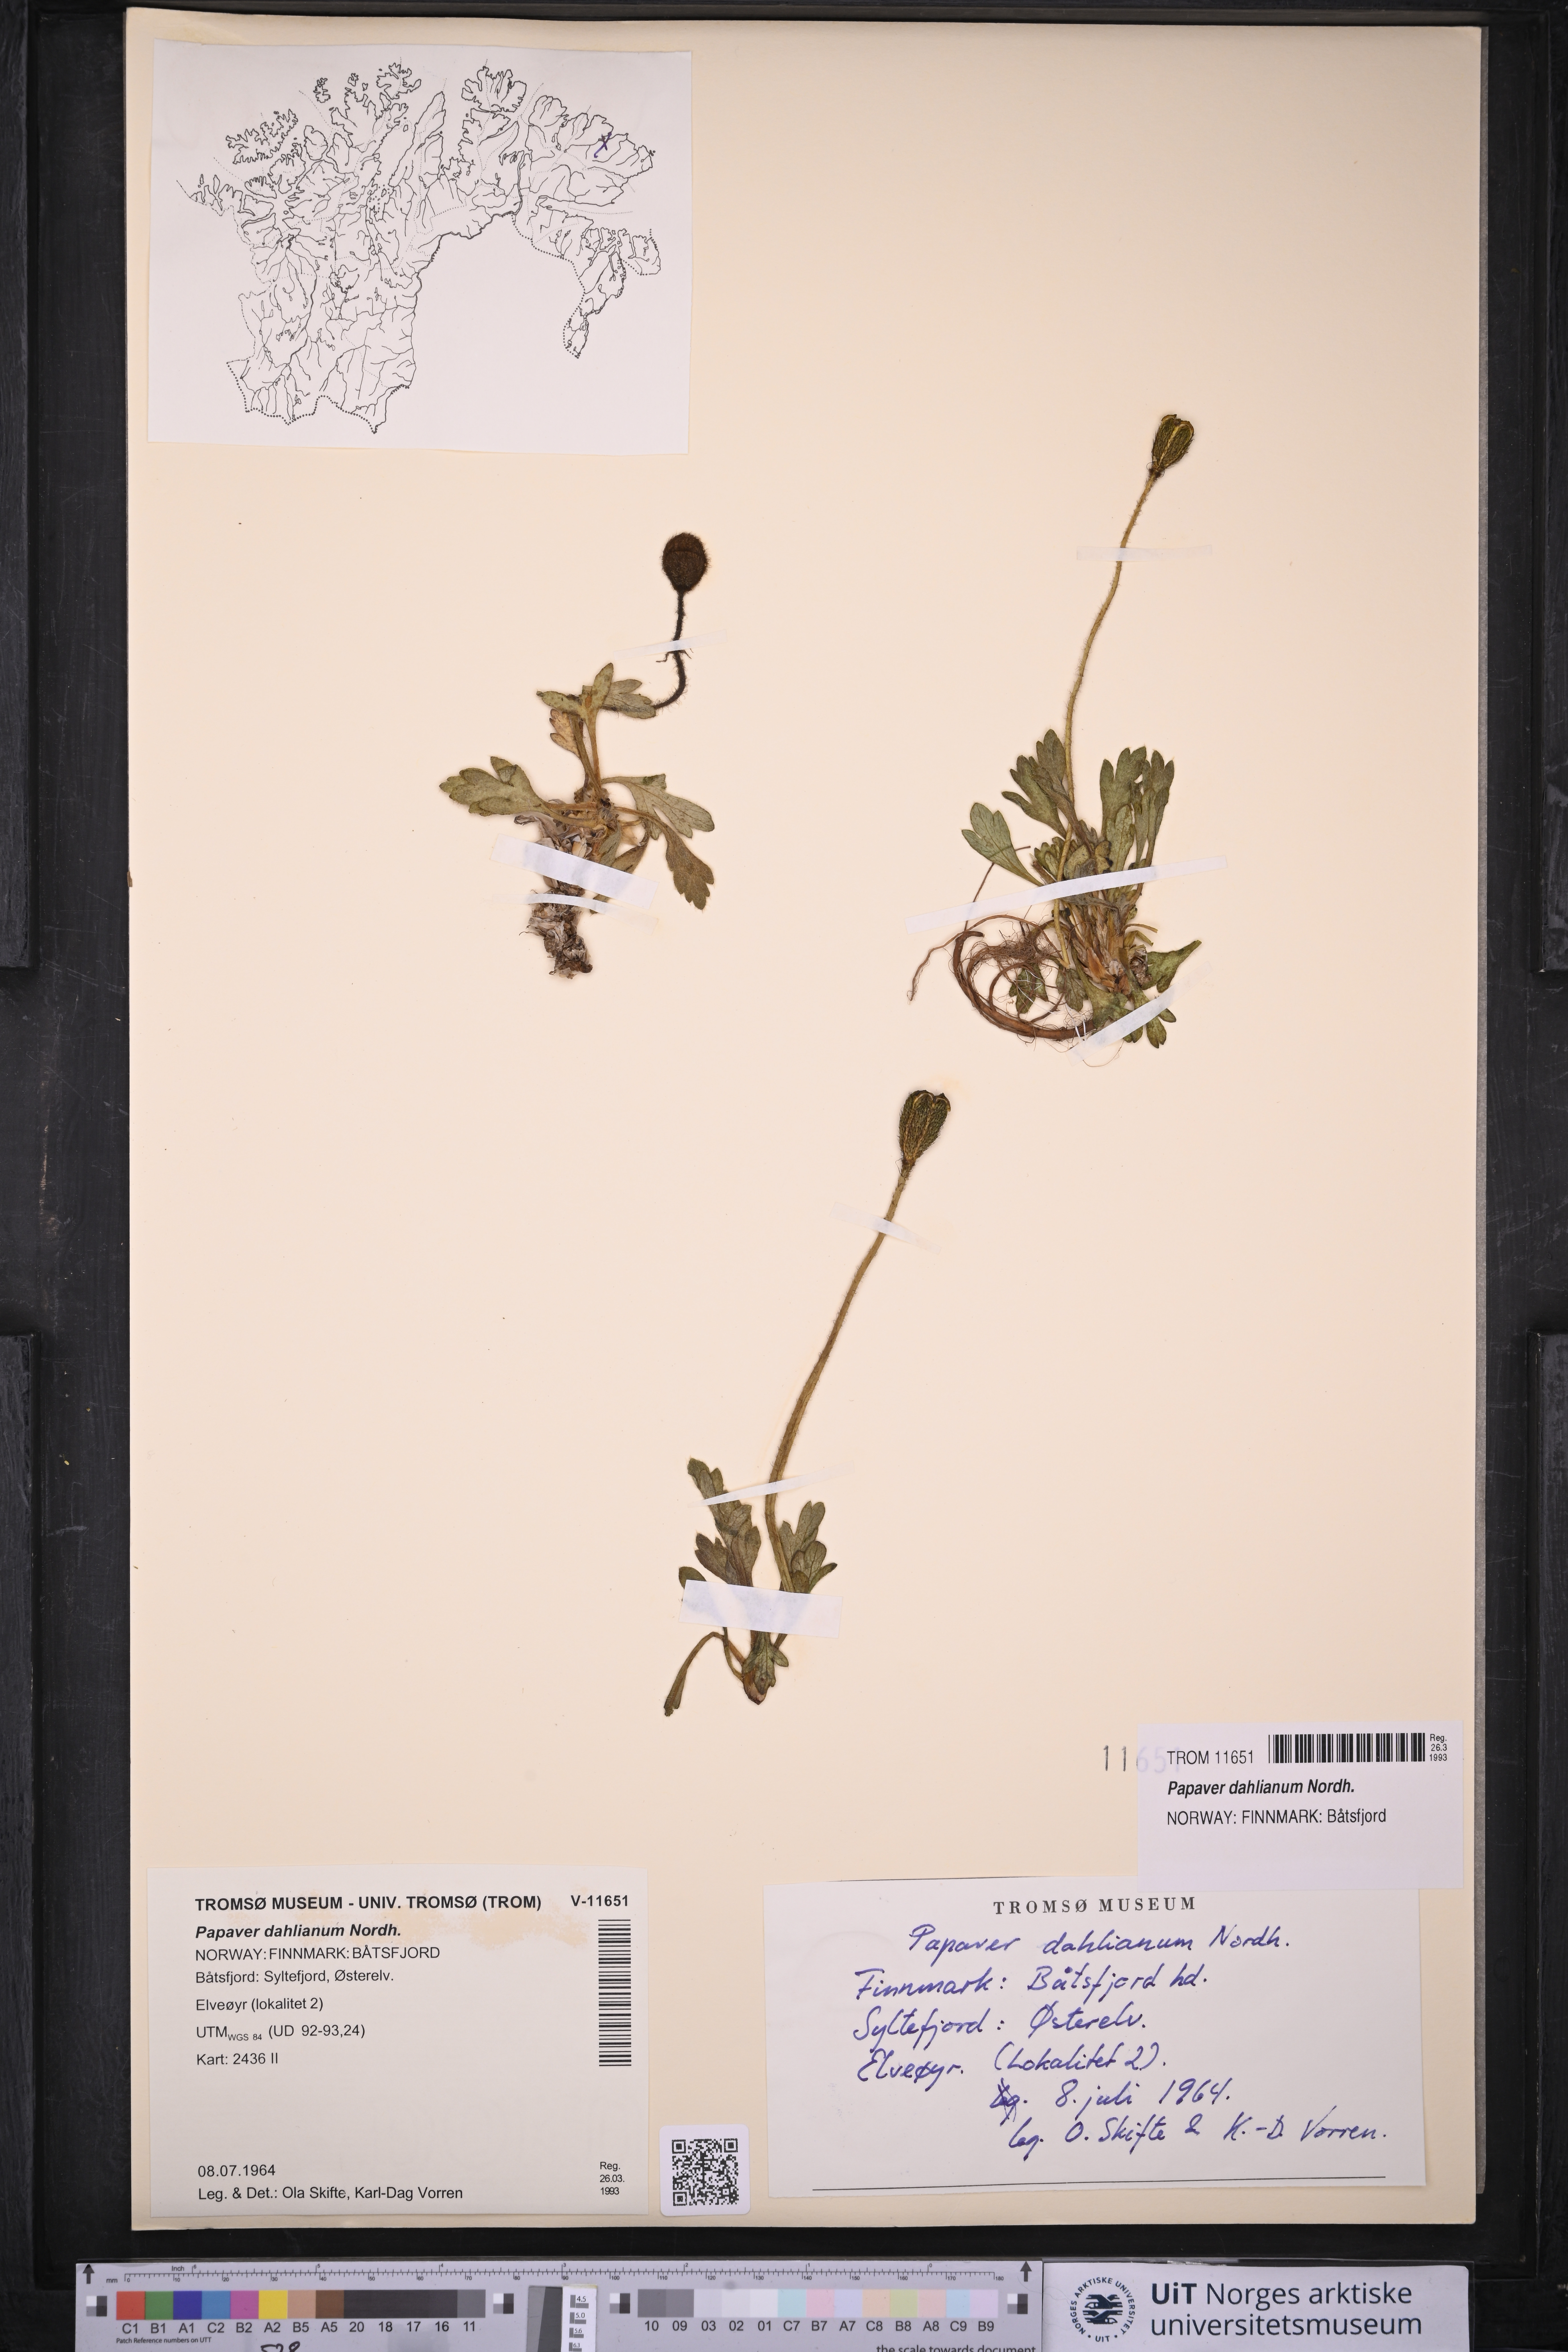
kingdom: Plantae
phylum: Tracheophyta
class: Magnoliopsida
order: Ranunculales
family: Papaveraceae
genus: Papaver
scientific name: Papaver radicatum
